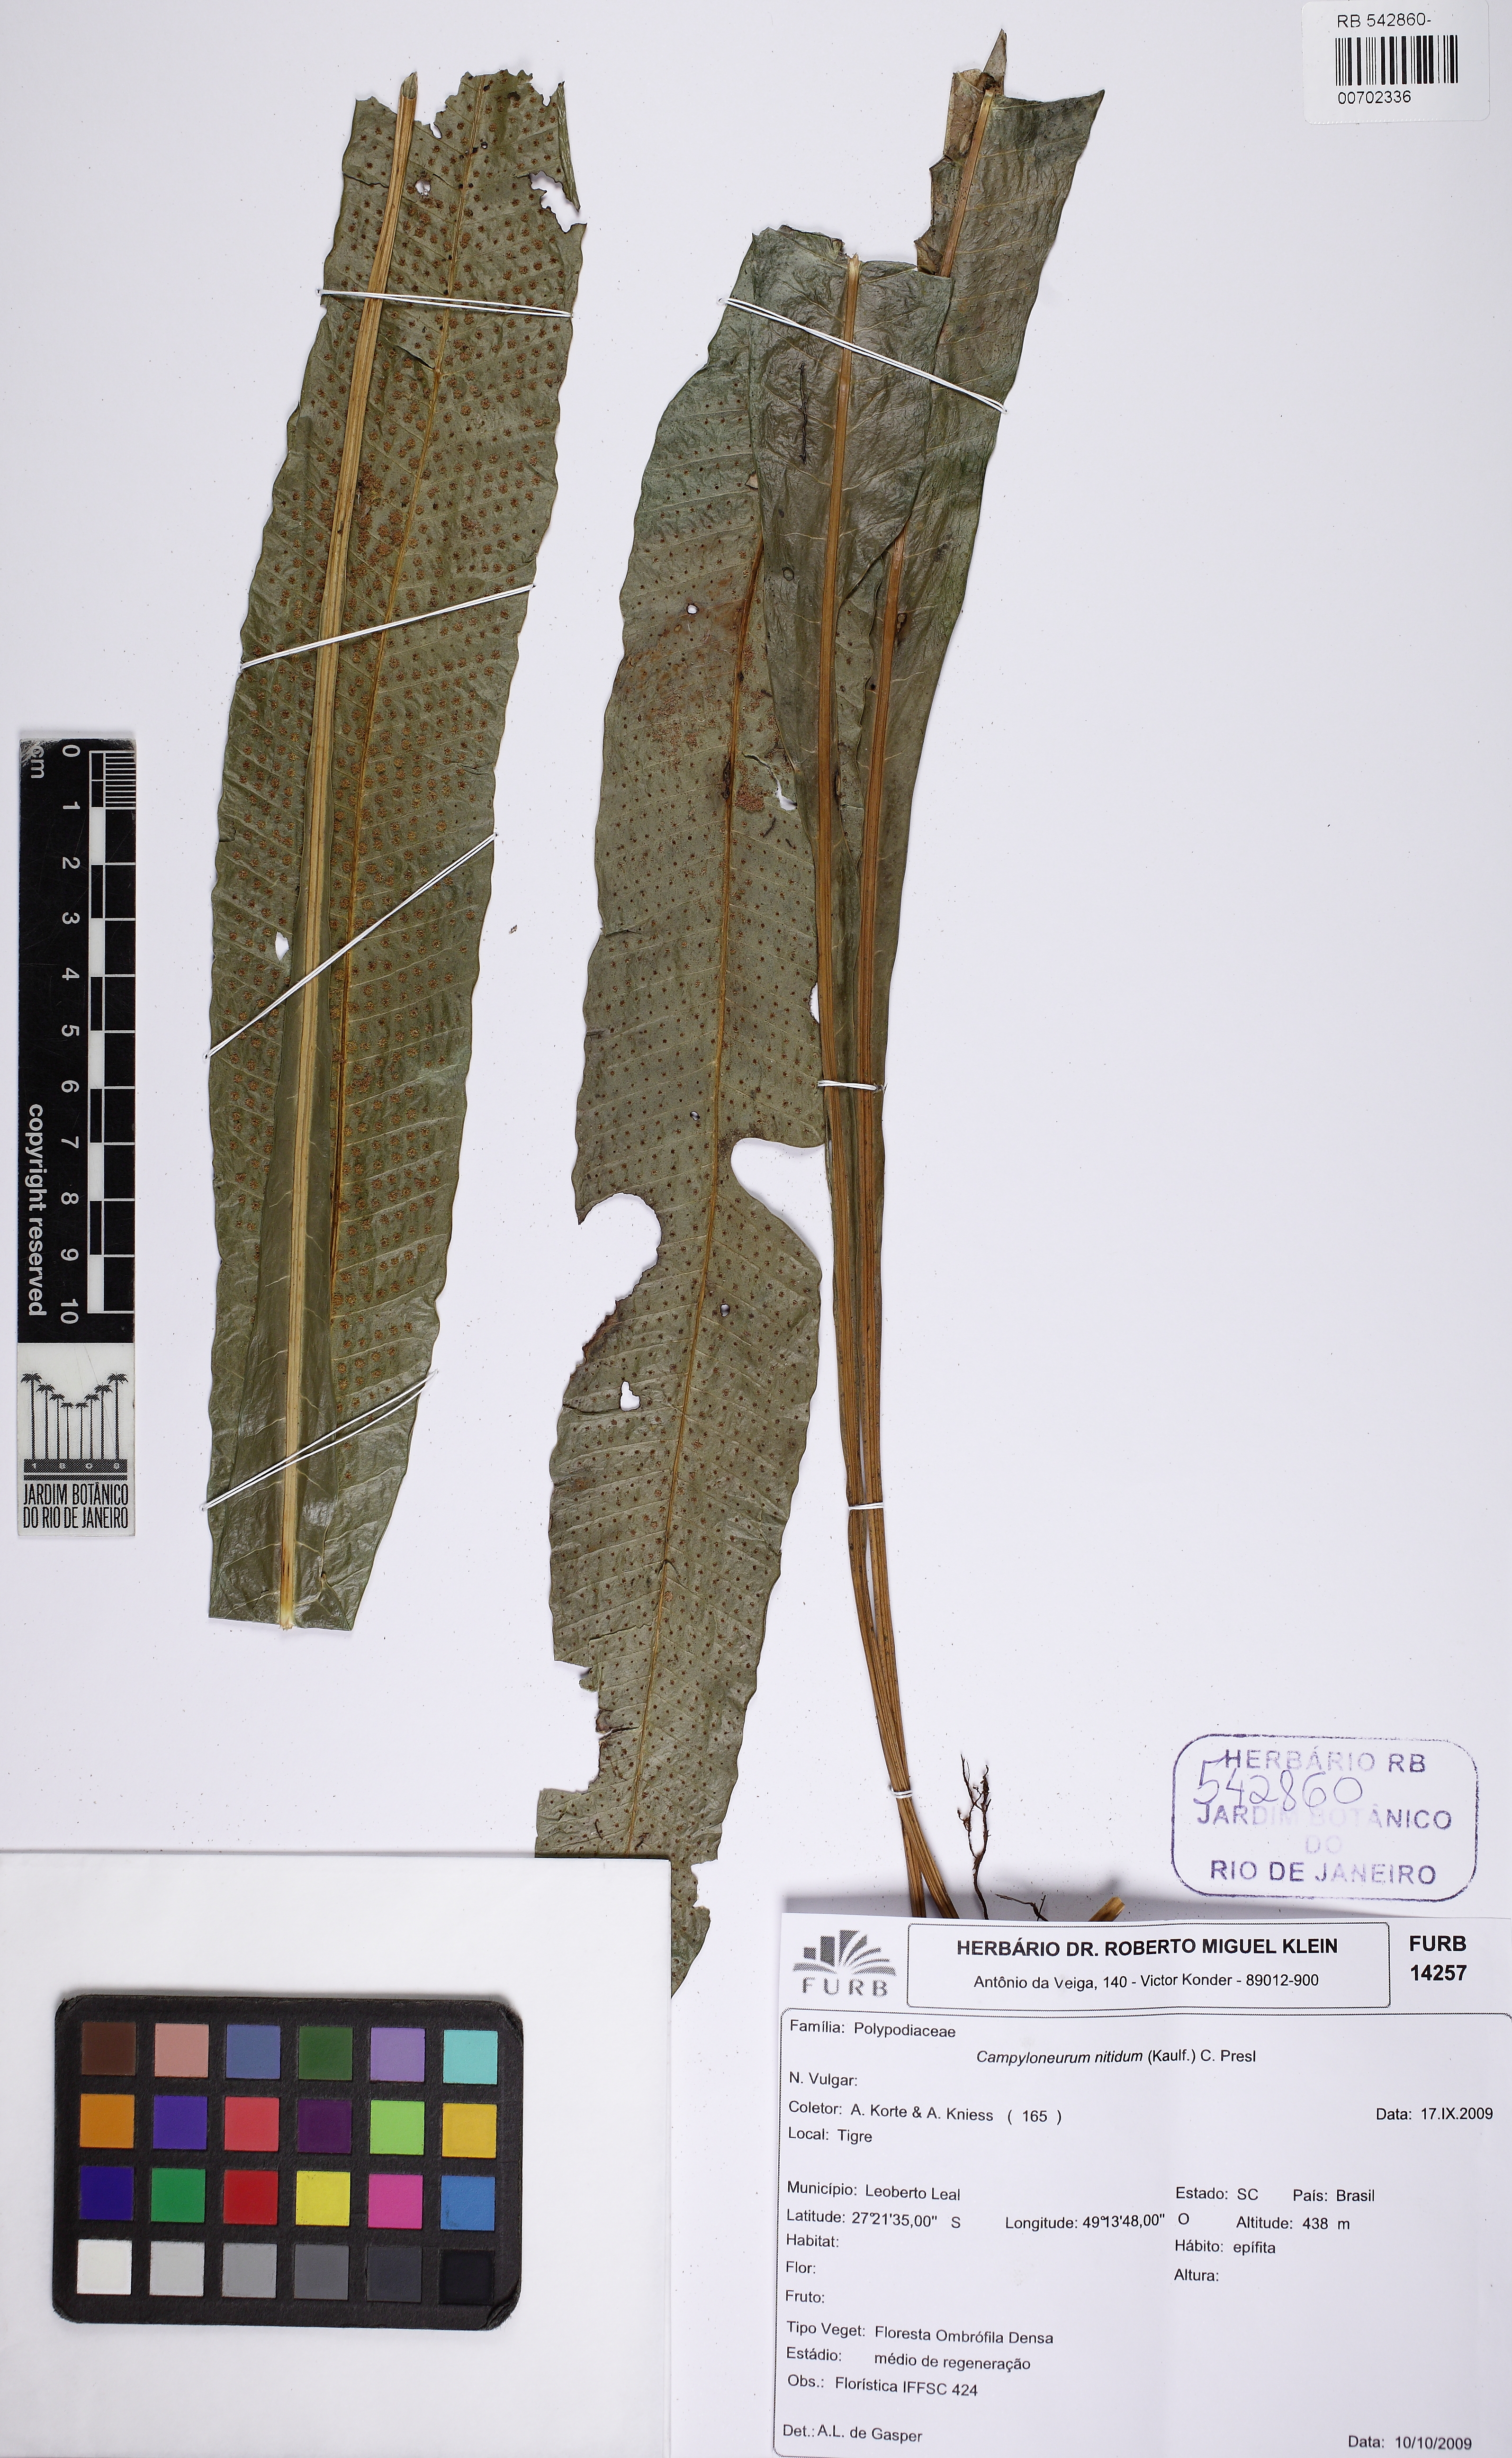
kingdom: Plantae
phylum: Tracheophyta
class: Polypodiopsida
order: Polypodiales
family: Polypodiaceae
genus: Campyloneurum
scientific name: Campyloneurum nitidum
